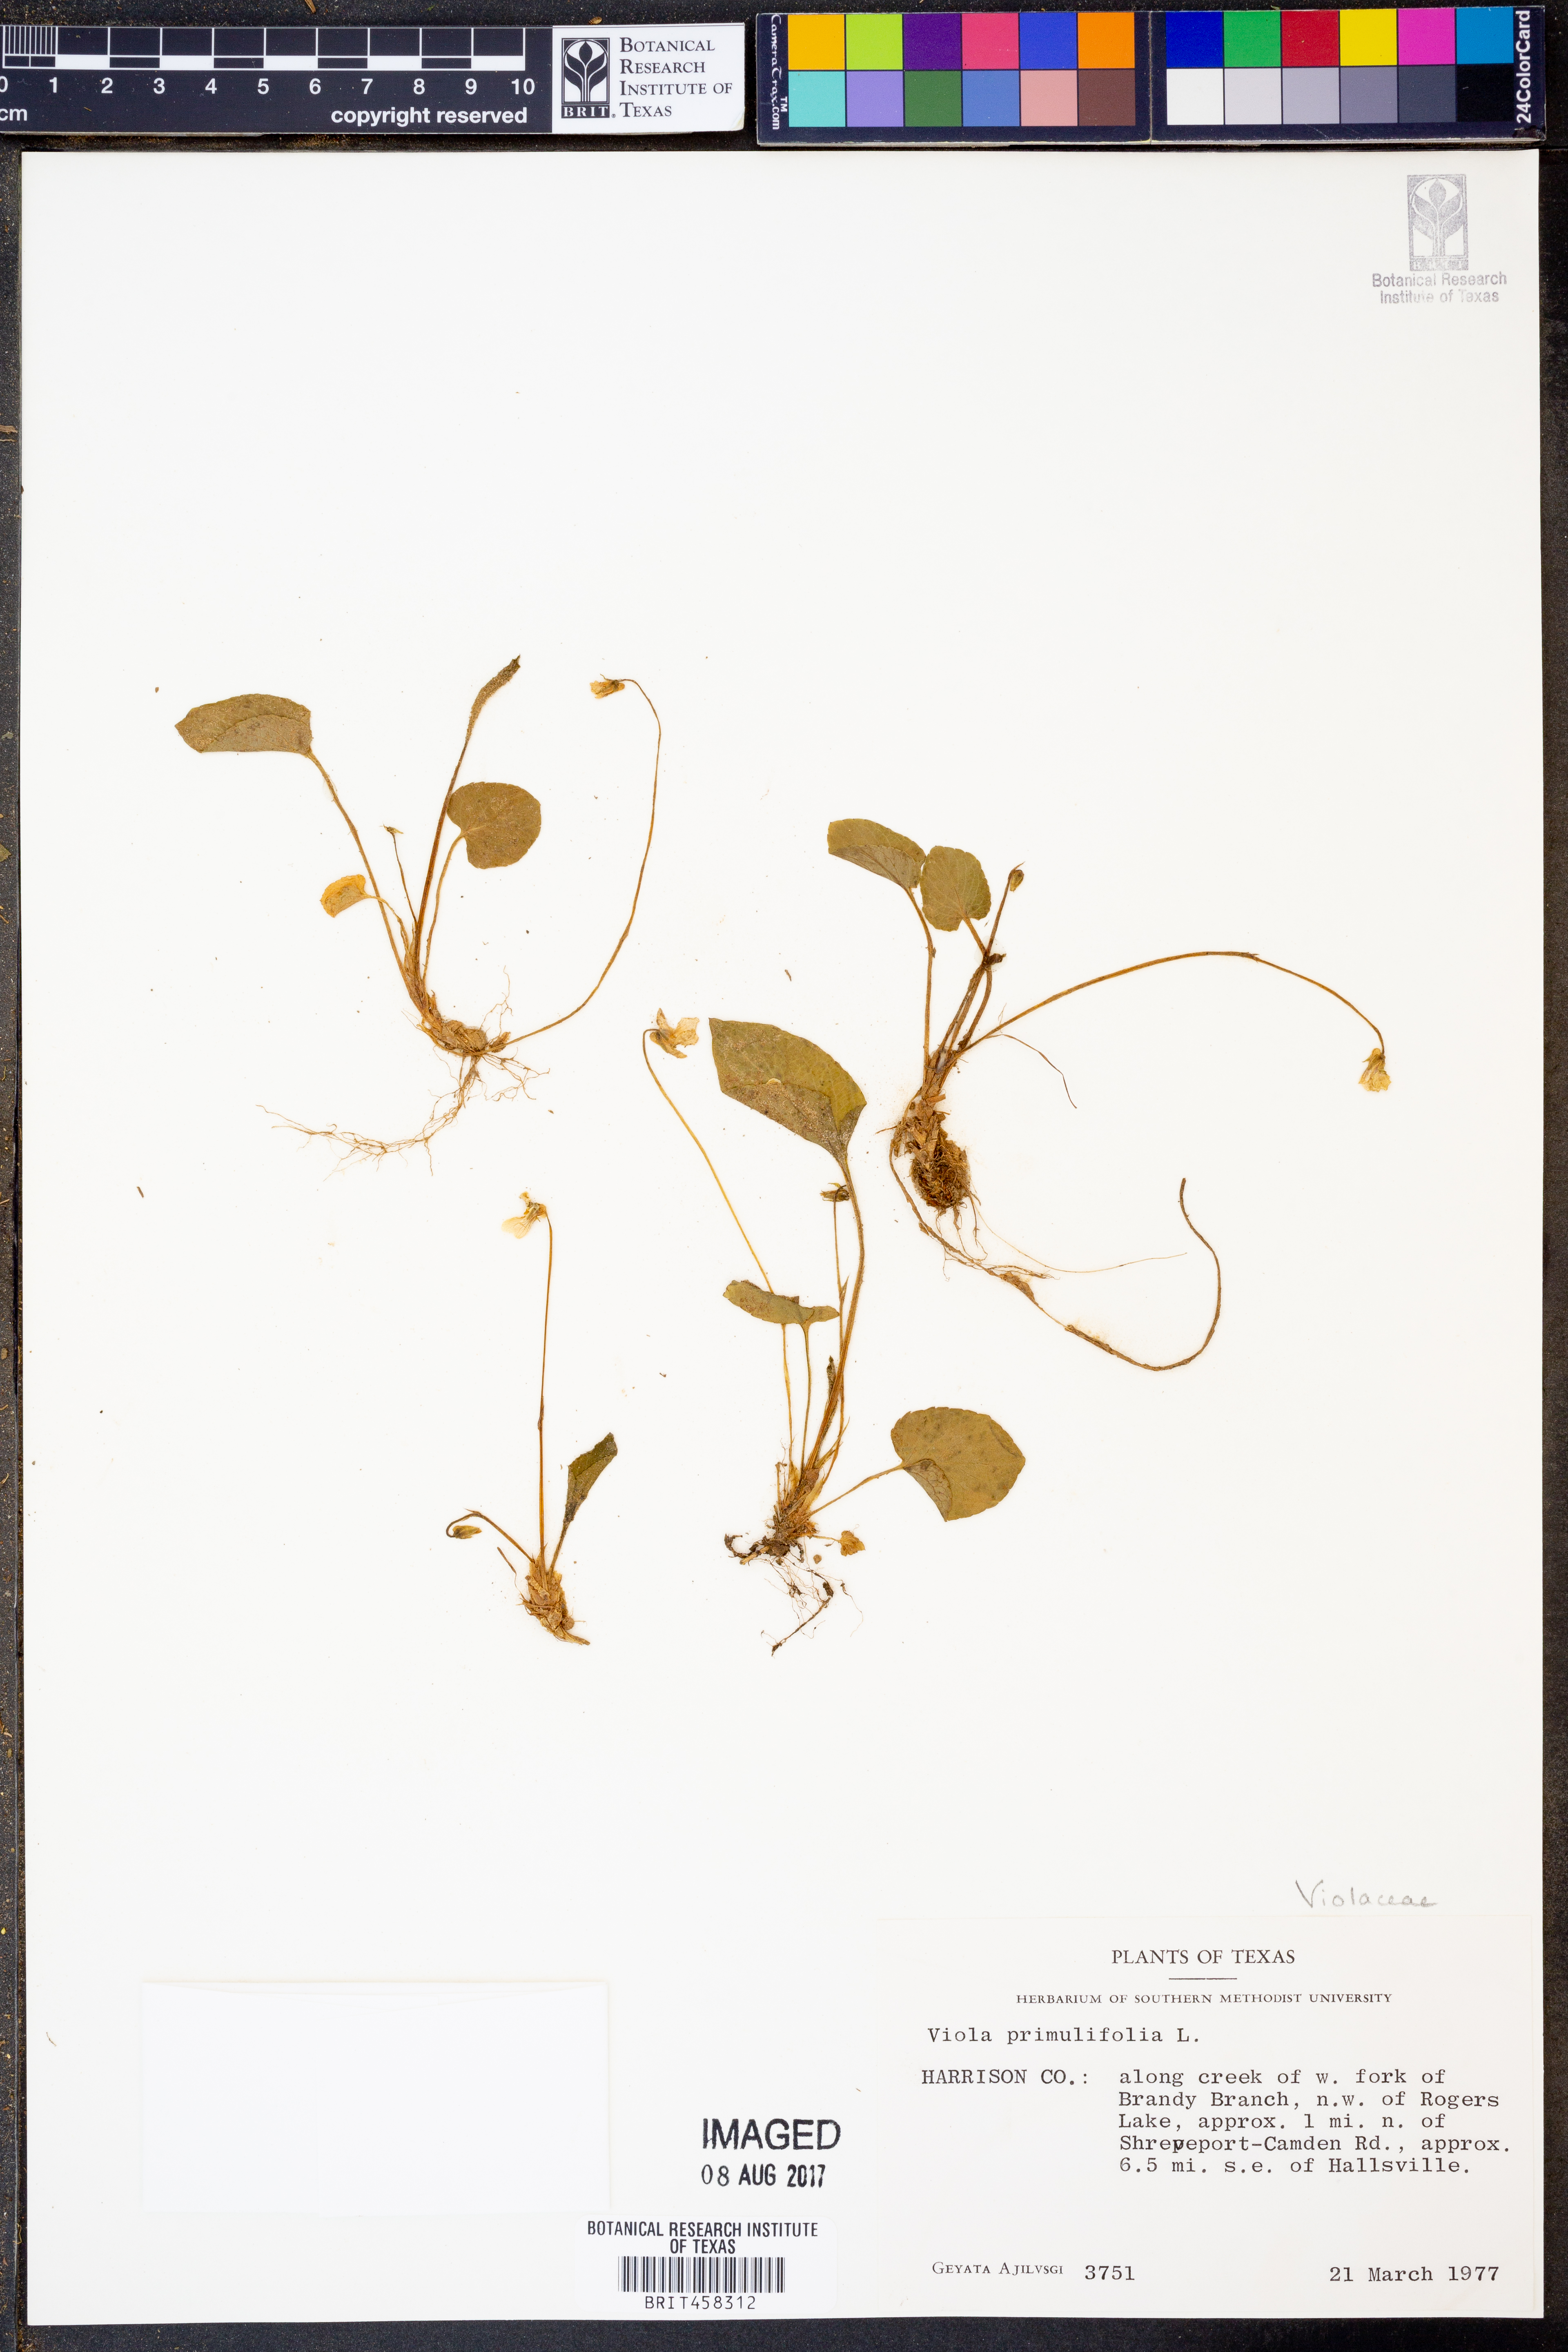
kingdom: Plantae
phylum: Tracheophyta
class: Magnoliopsida
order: Malpighiales
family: Violaceae
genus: Viola
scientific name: Viola primulifolia
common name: Primrose-leaf violet
